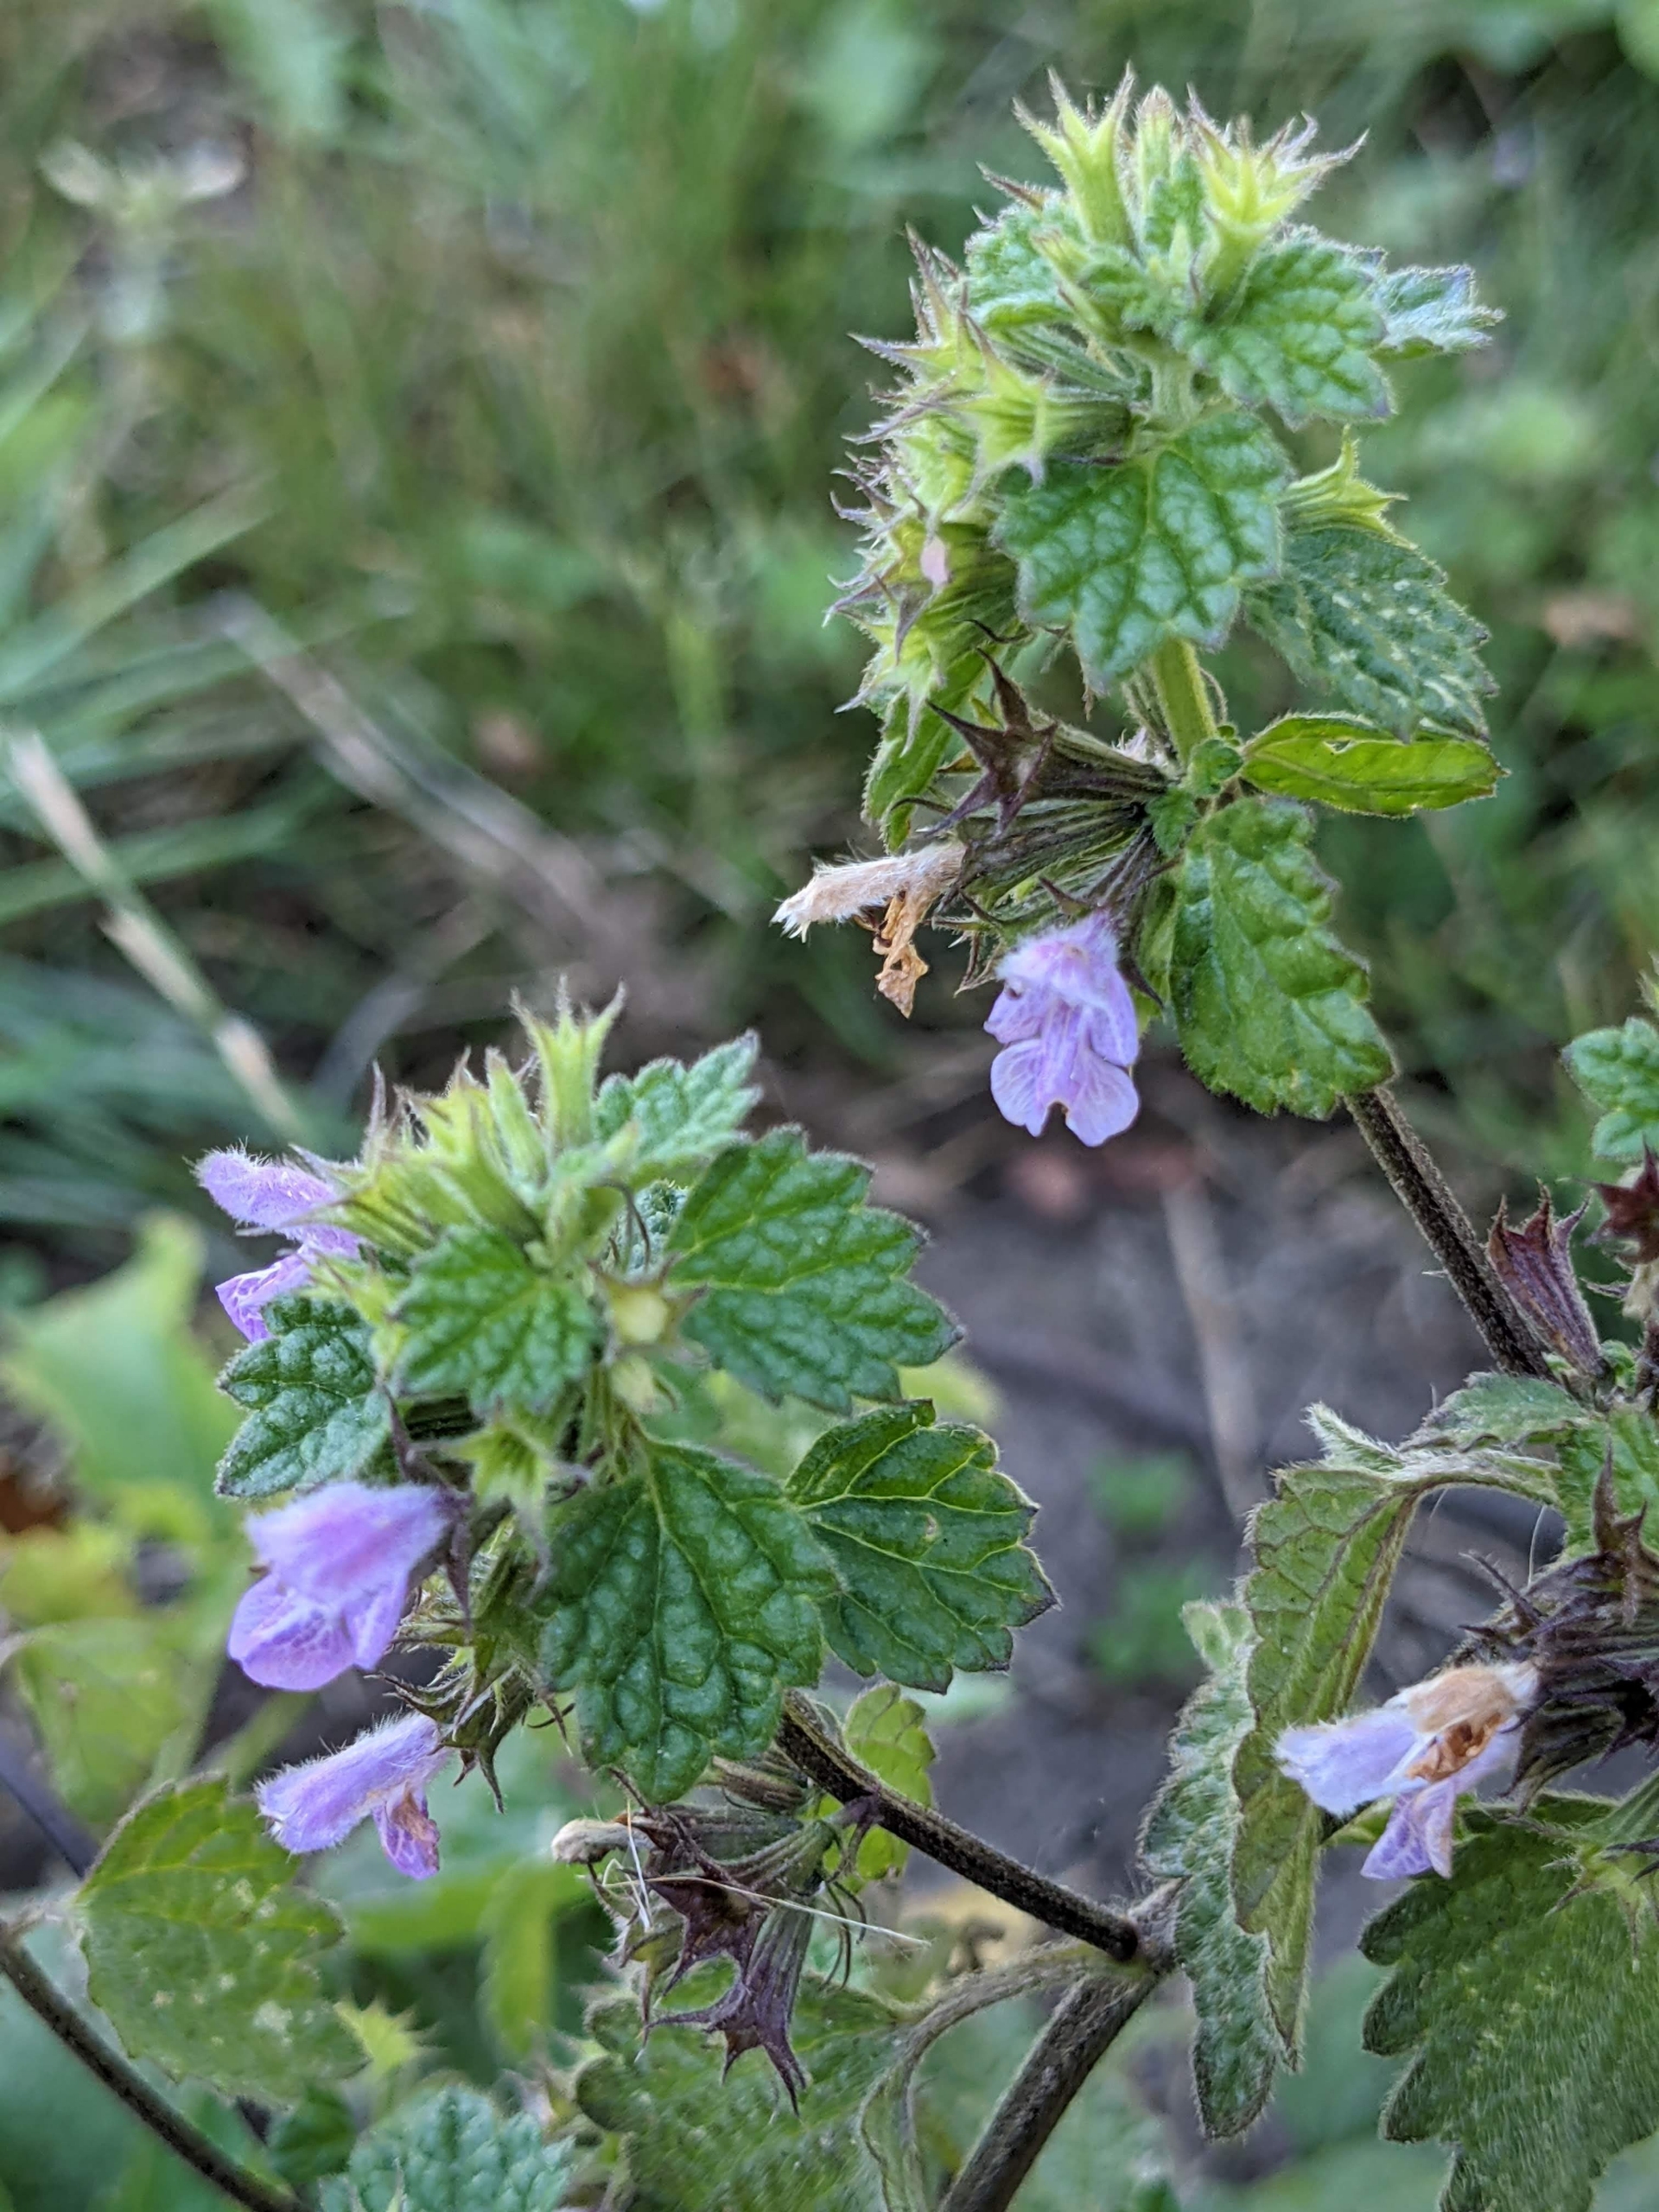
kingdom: Plantae
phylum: Tracheophyta
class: Magnoliopsida
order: Lamiales
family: Lamiaceae
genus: Ballota
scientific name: Ballota nigra
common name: Tandbæger
